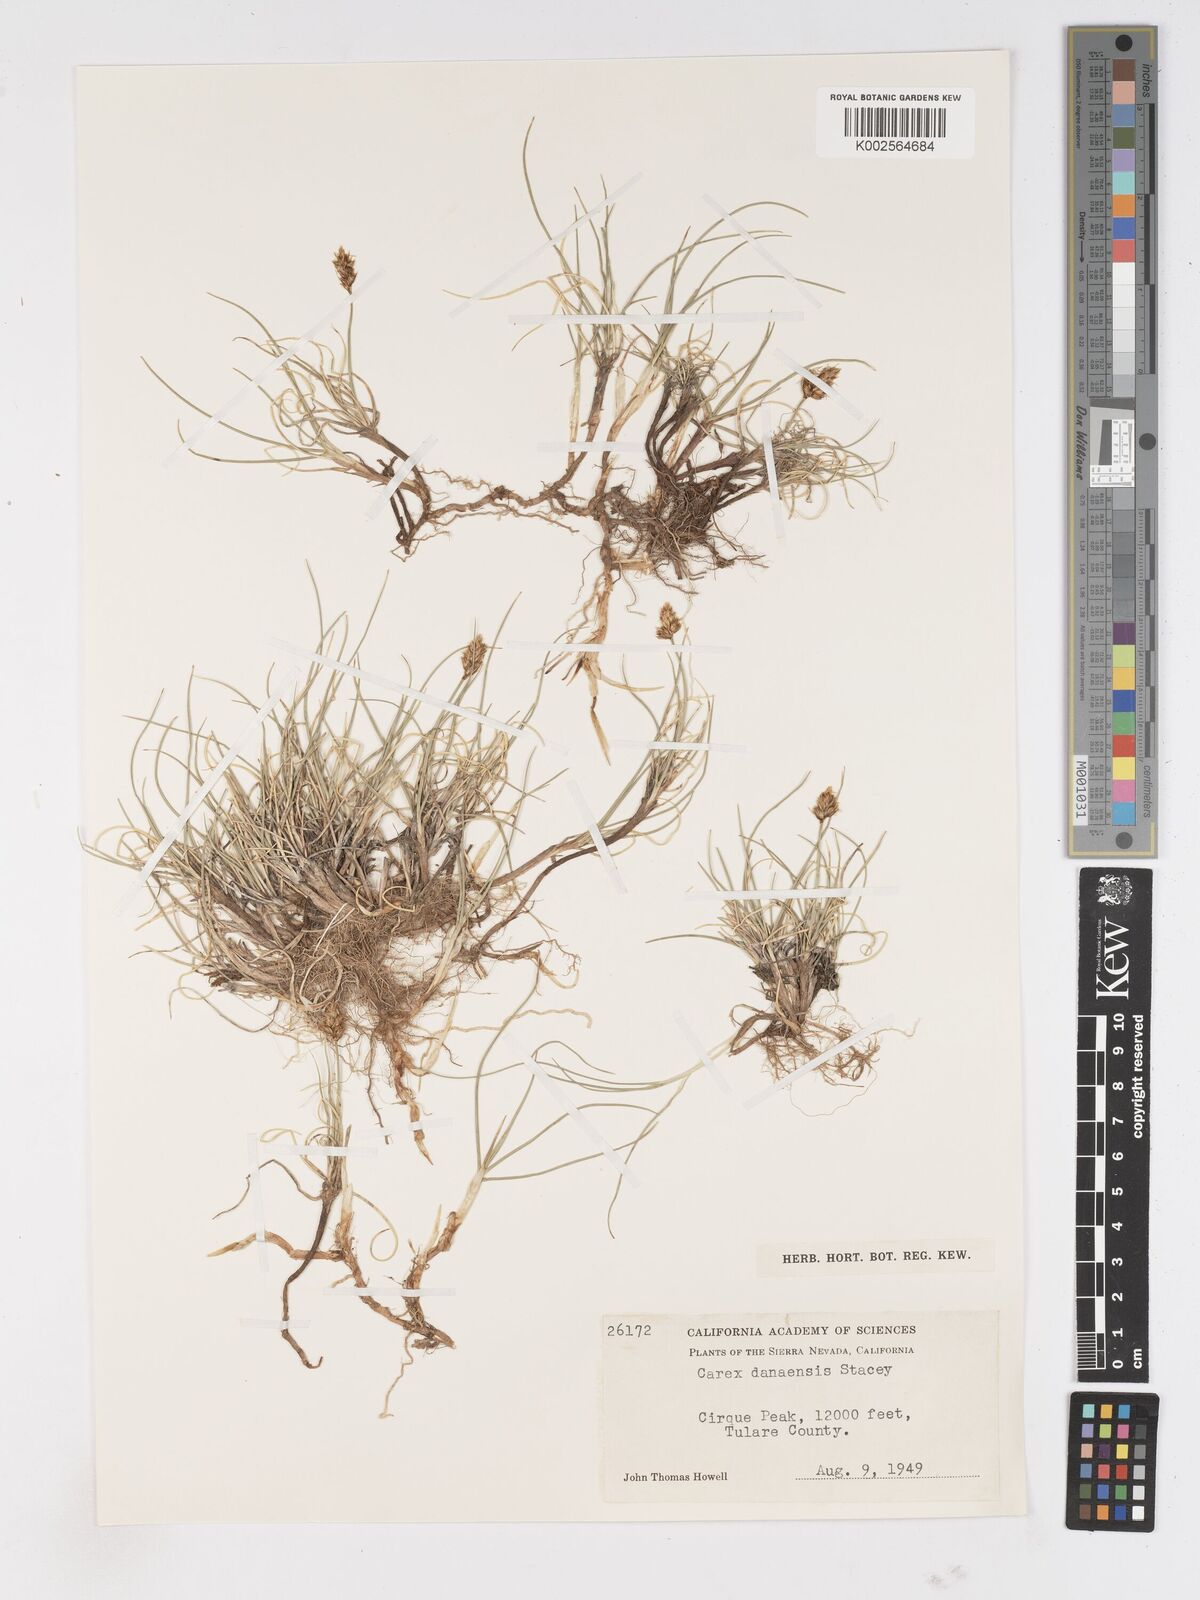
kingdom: Plantae
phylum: Tracheophyta
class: Liliopsida
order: Poales
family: Cyperaceae
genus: Carex
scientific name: Carex incurviformis
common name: Coastal sand sedge
